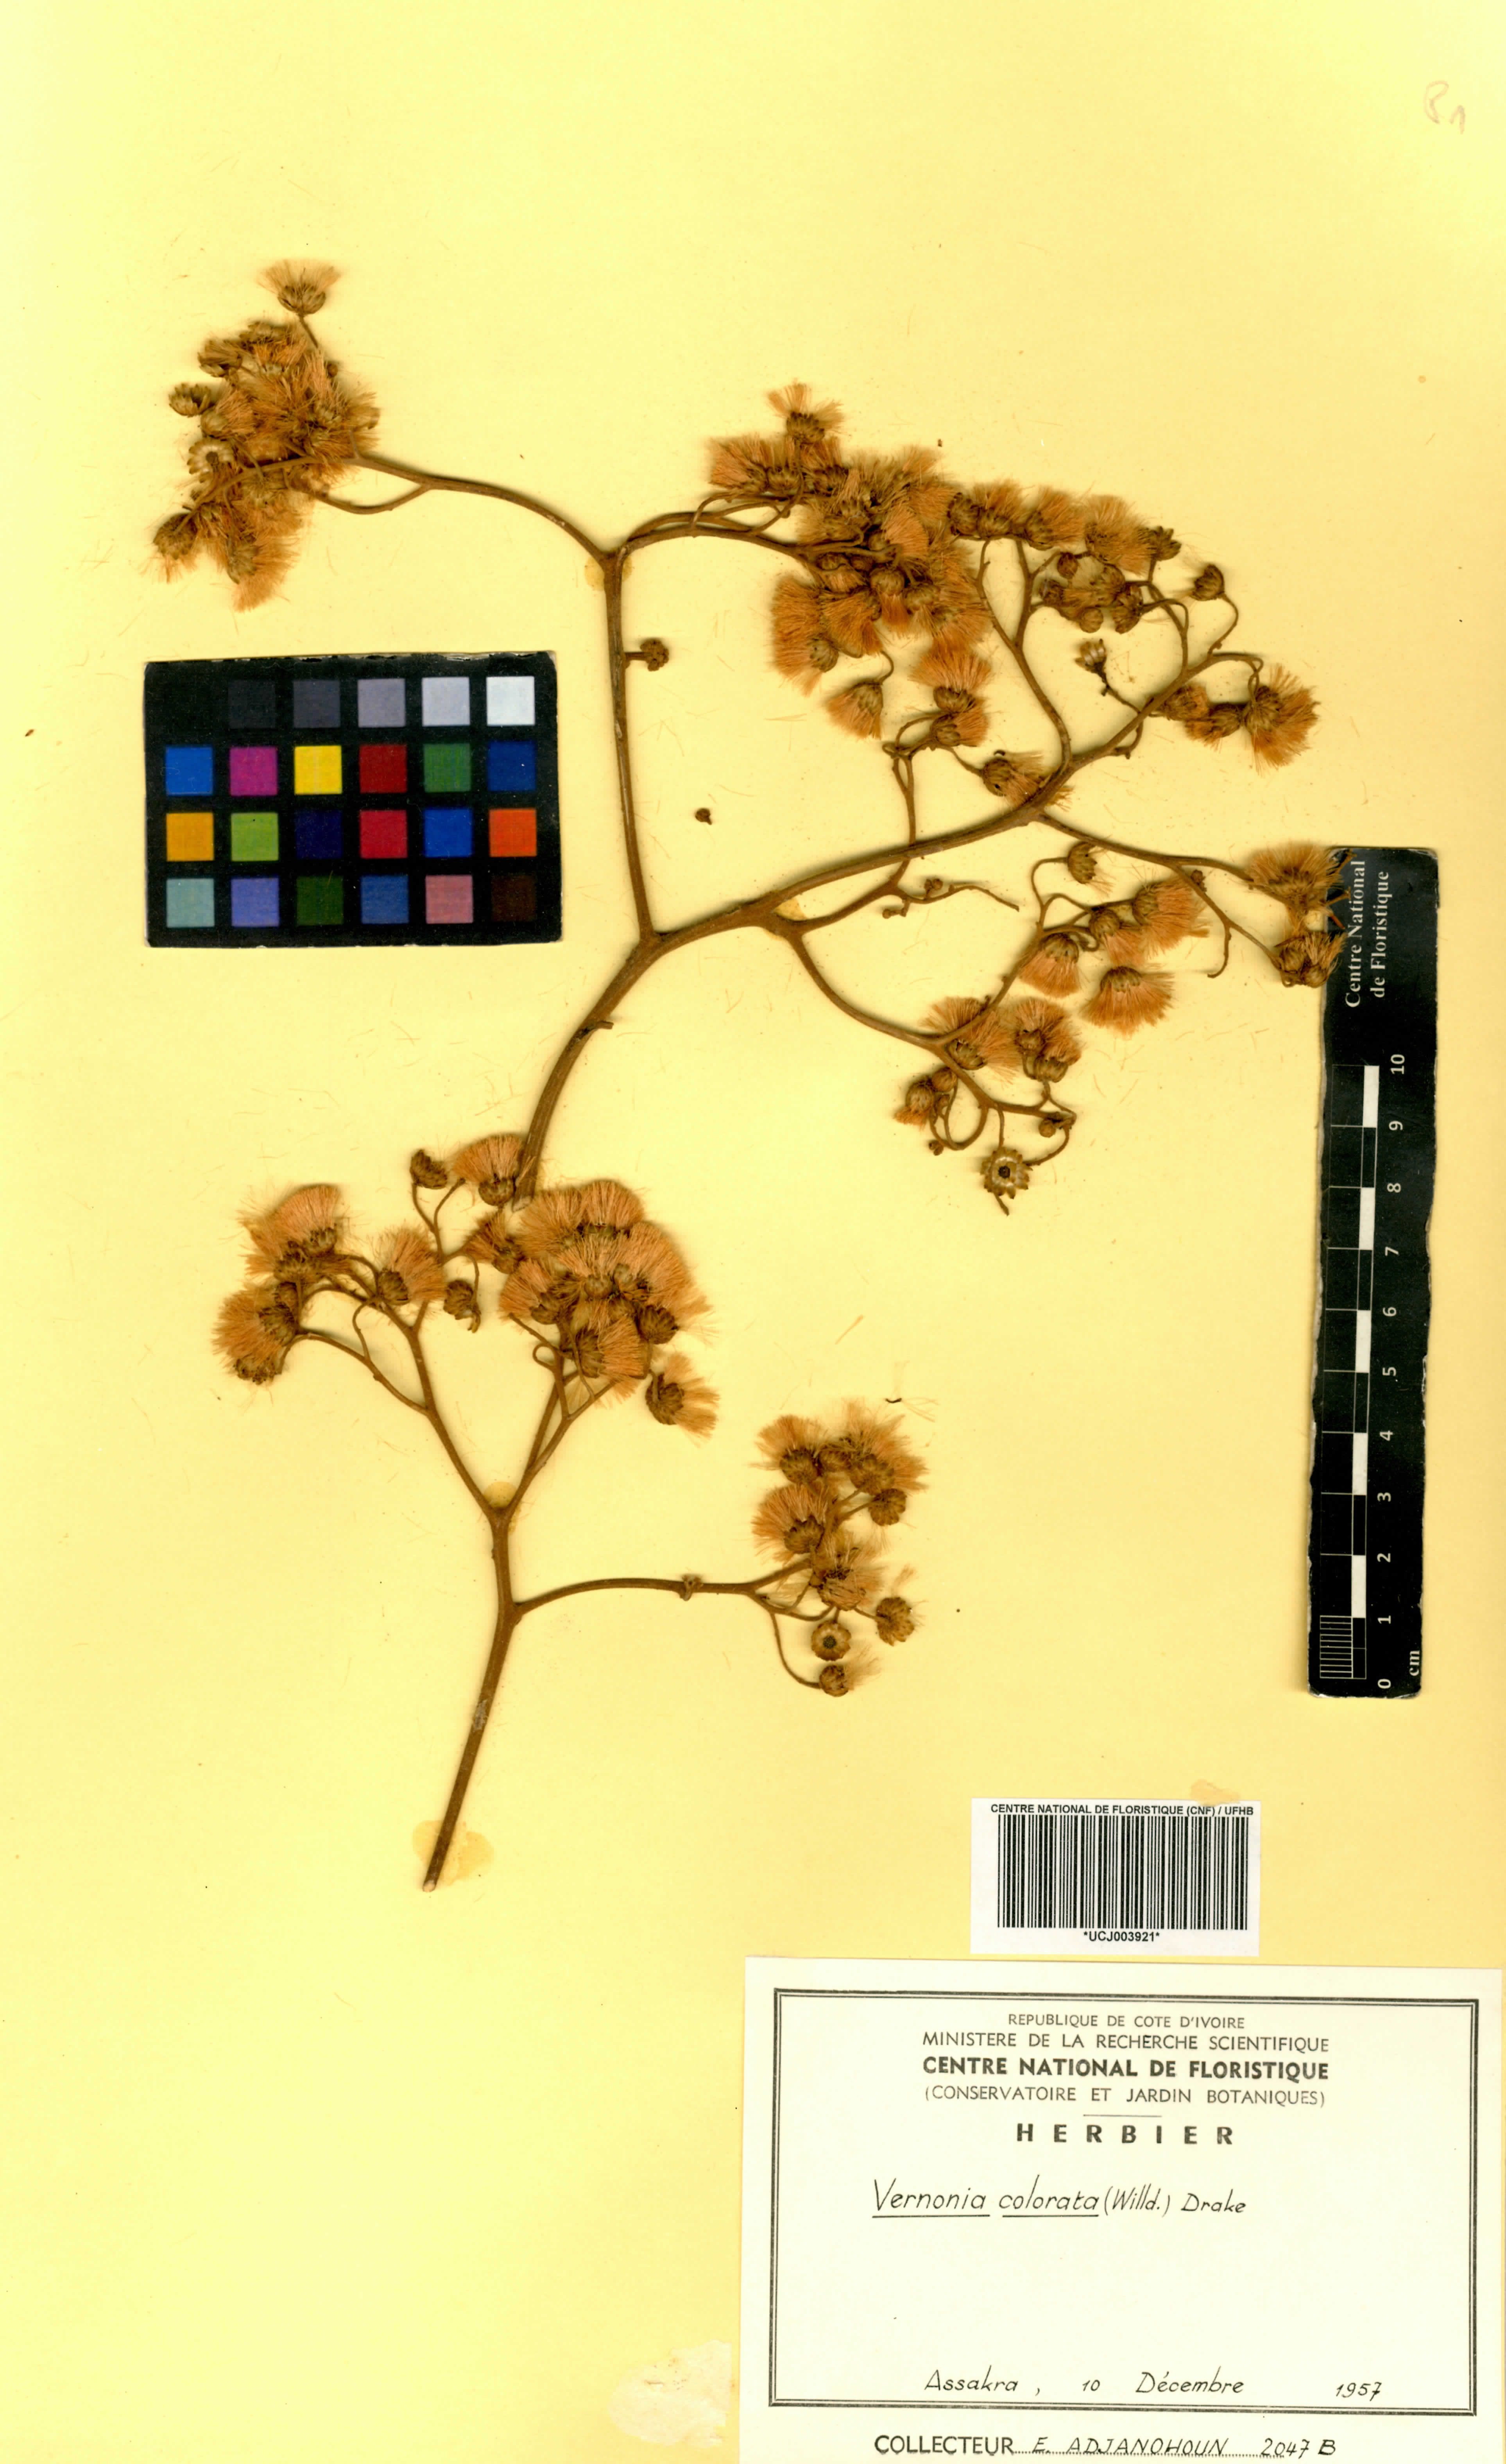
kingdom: Plantae
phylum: Tracheophyta
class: Magnoliopsida
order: Asterales
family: Asteraceae
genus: Vernonia
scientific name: Vernonia colorata
